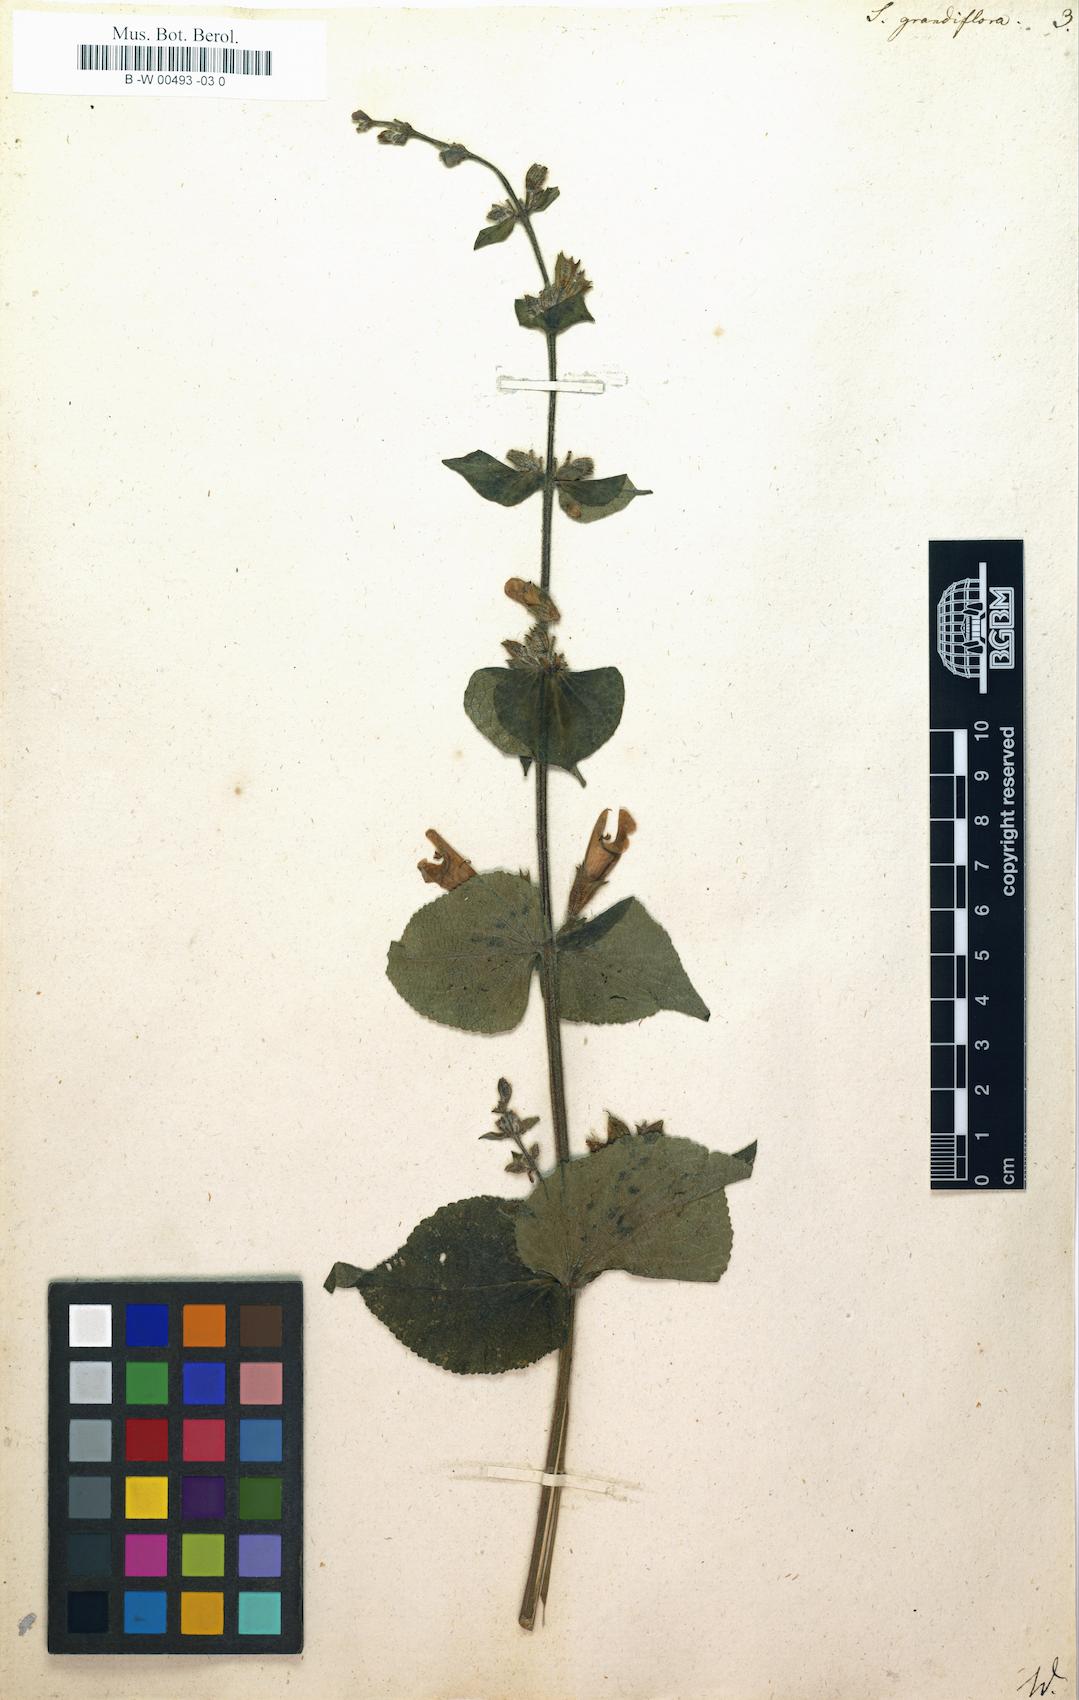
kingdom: Plantae
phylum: Tracheophyta
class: Magnoliopsida
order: Lamiales
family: Lamiaceae
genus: Salvia
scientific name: Salvia grandiflora
